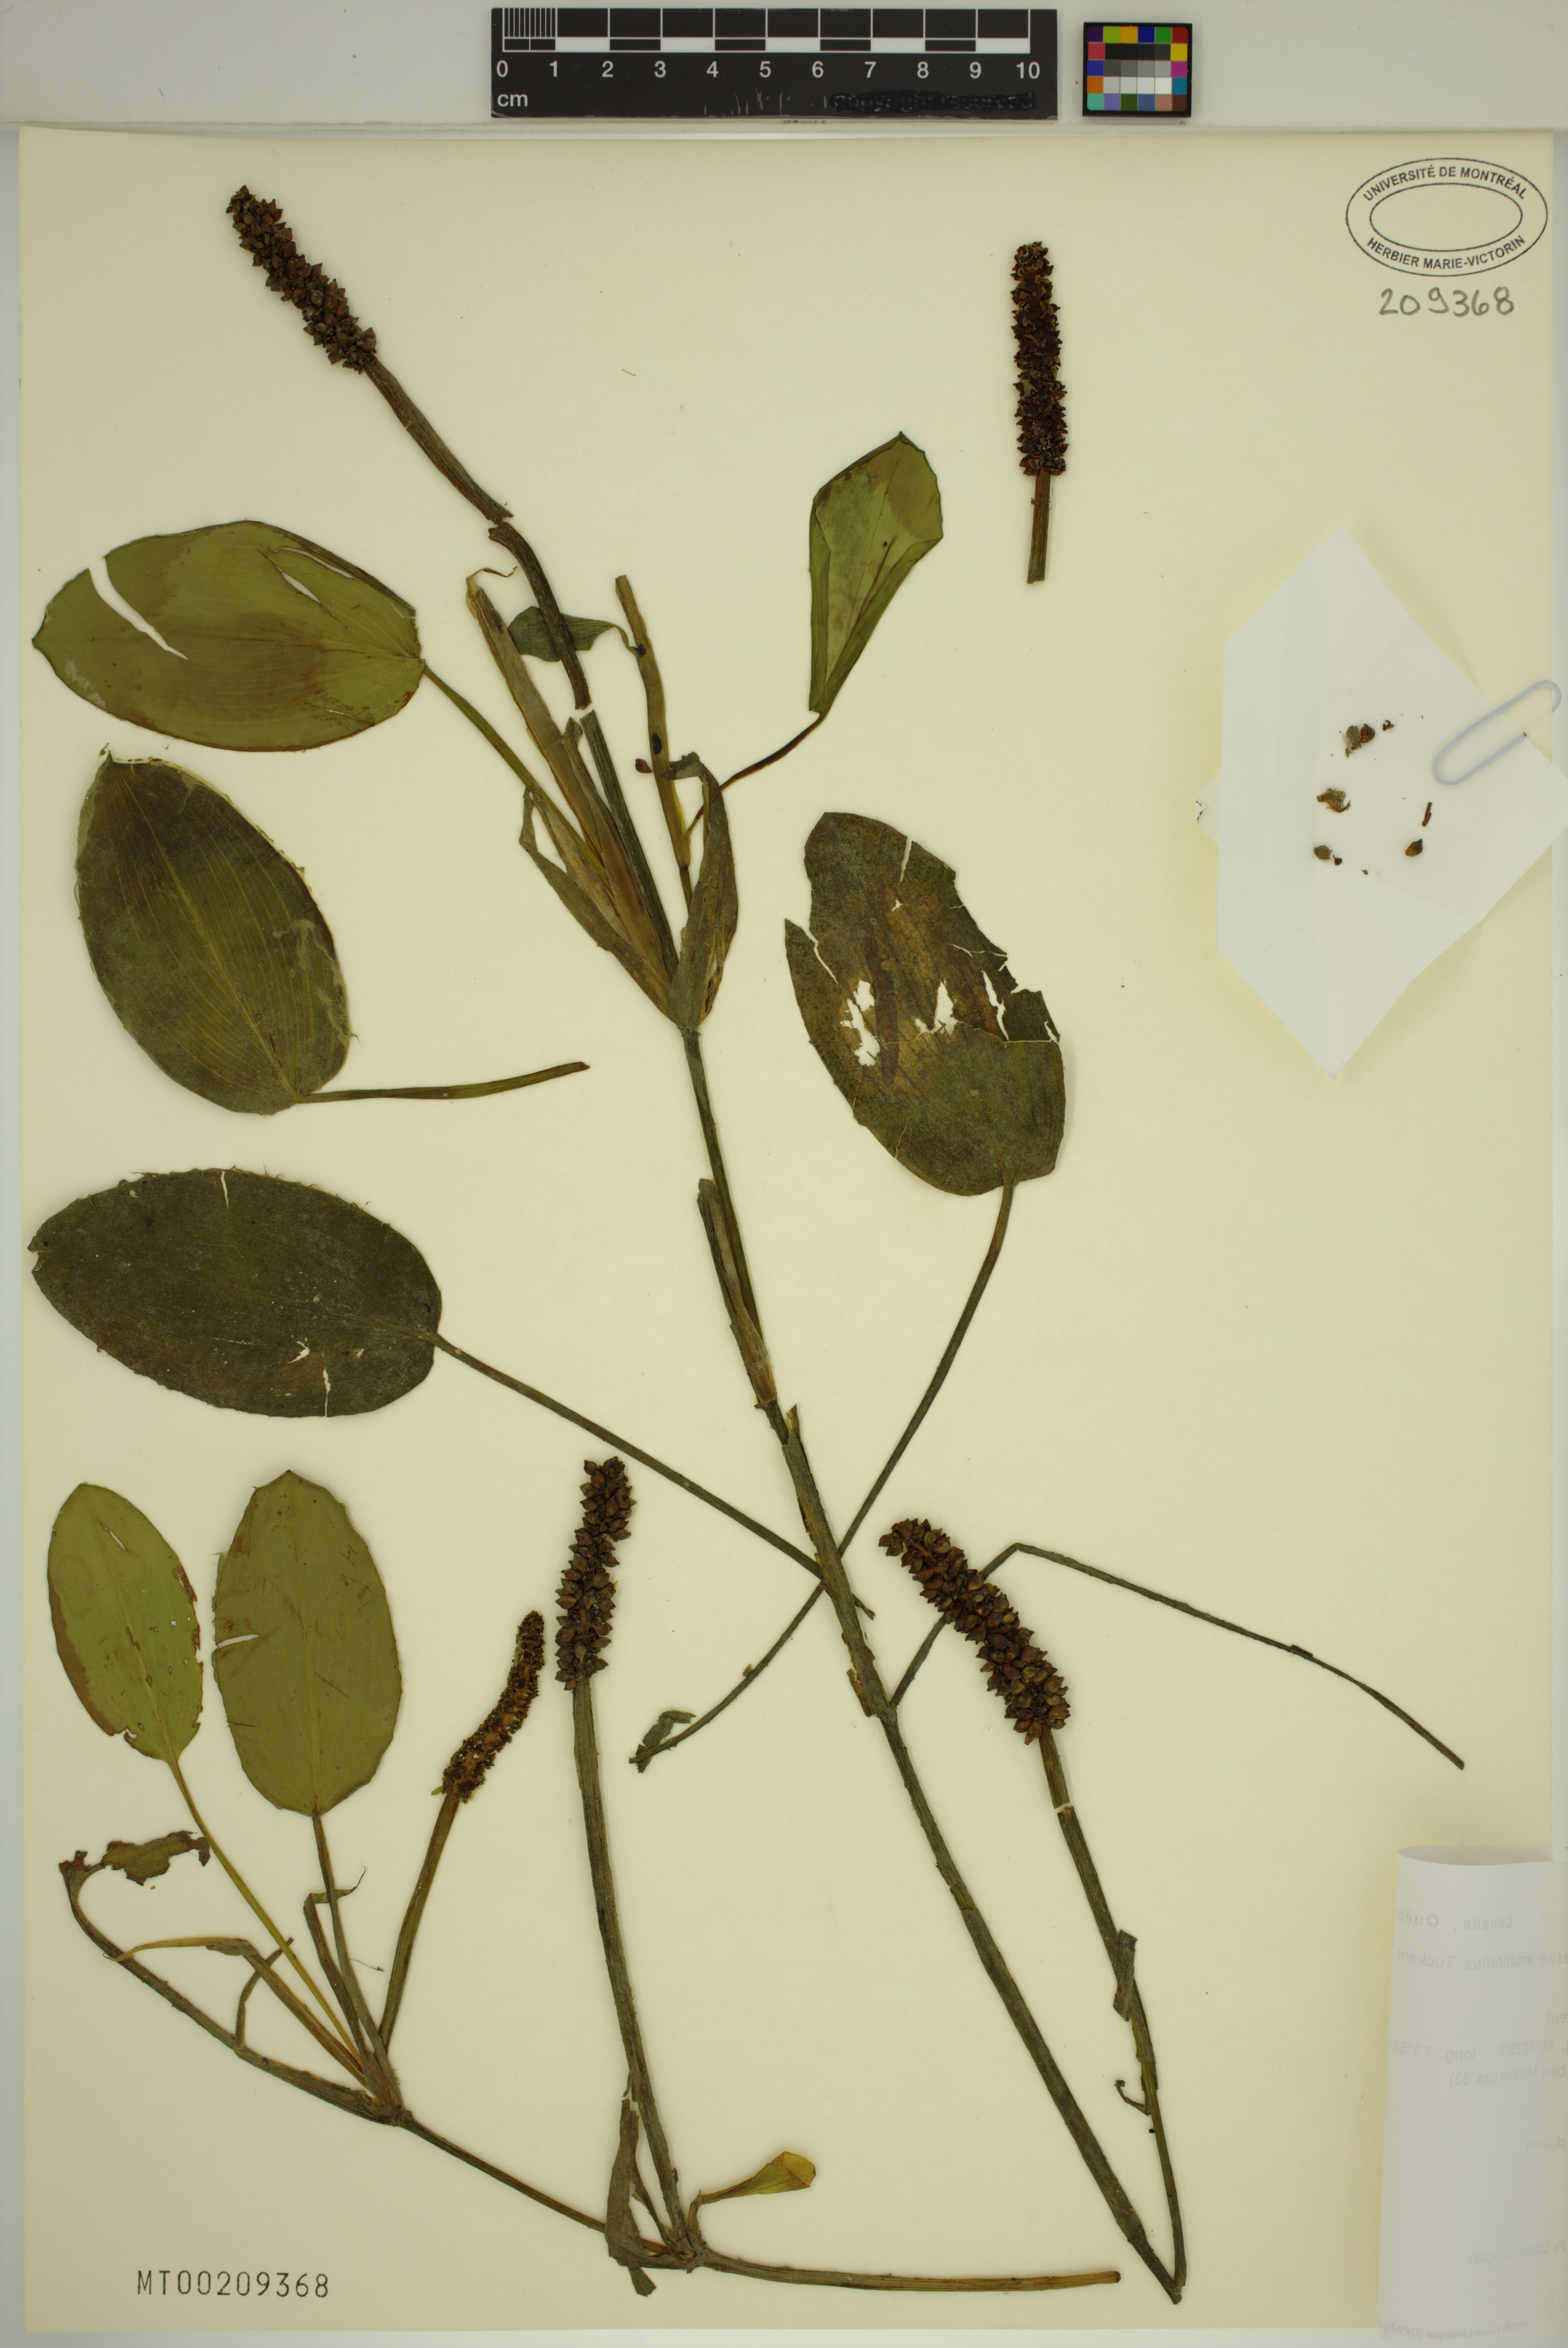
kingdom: Plantae
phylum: Tracheophyta
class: Liliopsida
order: Alismatales
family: Potamogetonaceae
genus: Potamogeton
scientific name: Potamogeton amplifolius
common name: Broad-leaved pondweed
